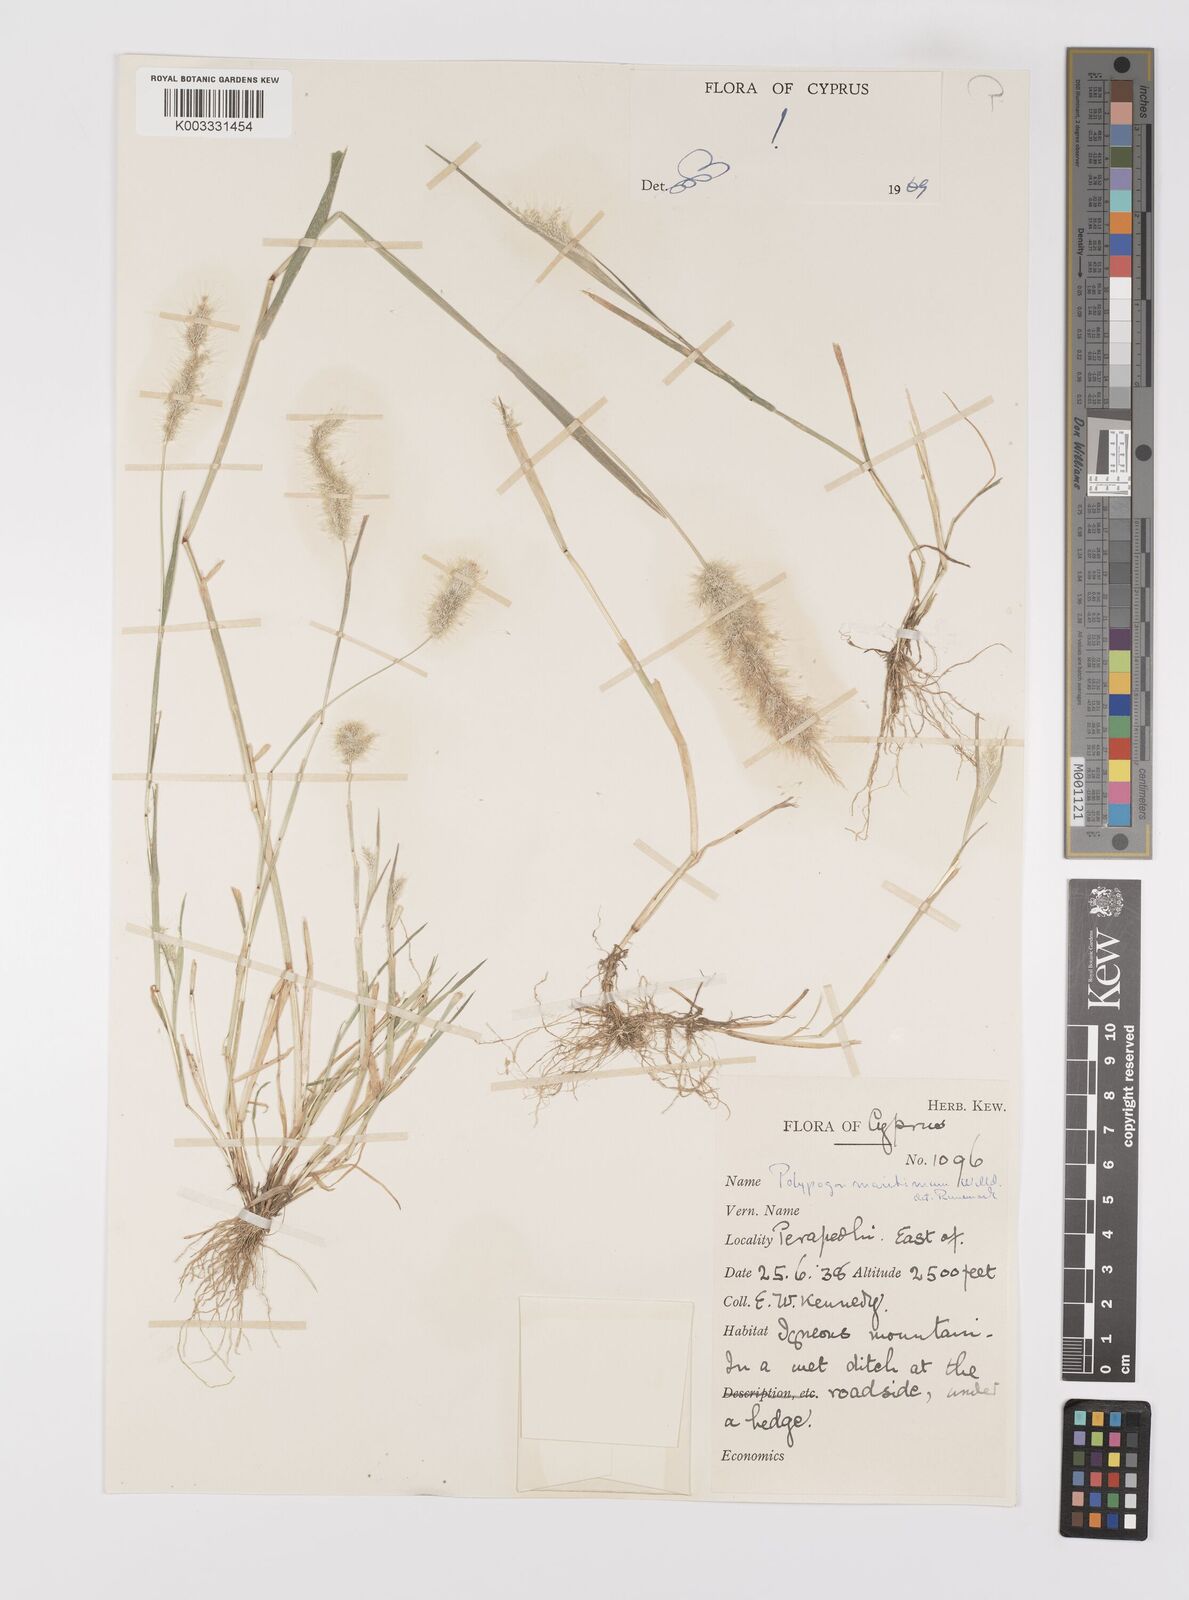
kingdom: Plantae
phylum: Tracheophyta
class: Liliopsida
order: Poales
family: Poaceae
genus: Polypogon
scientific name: Polypogon maritimus
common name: Mediterranean rabbitsfoot grass
